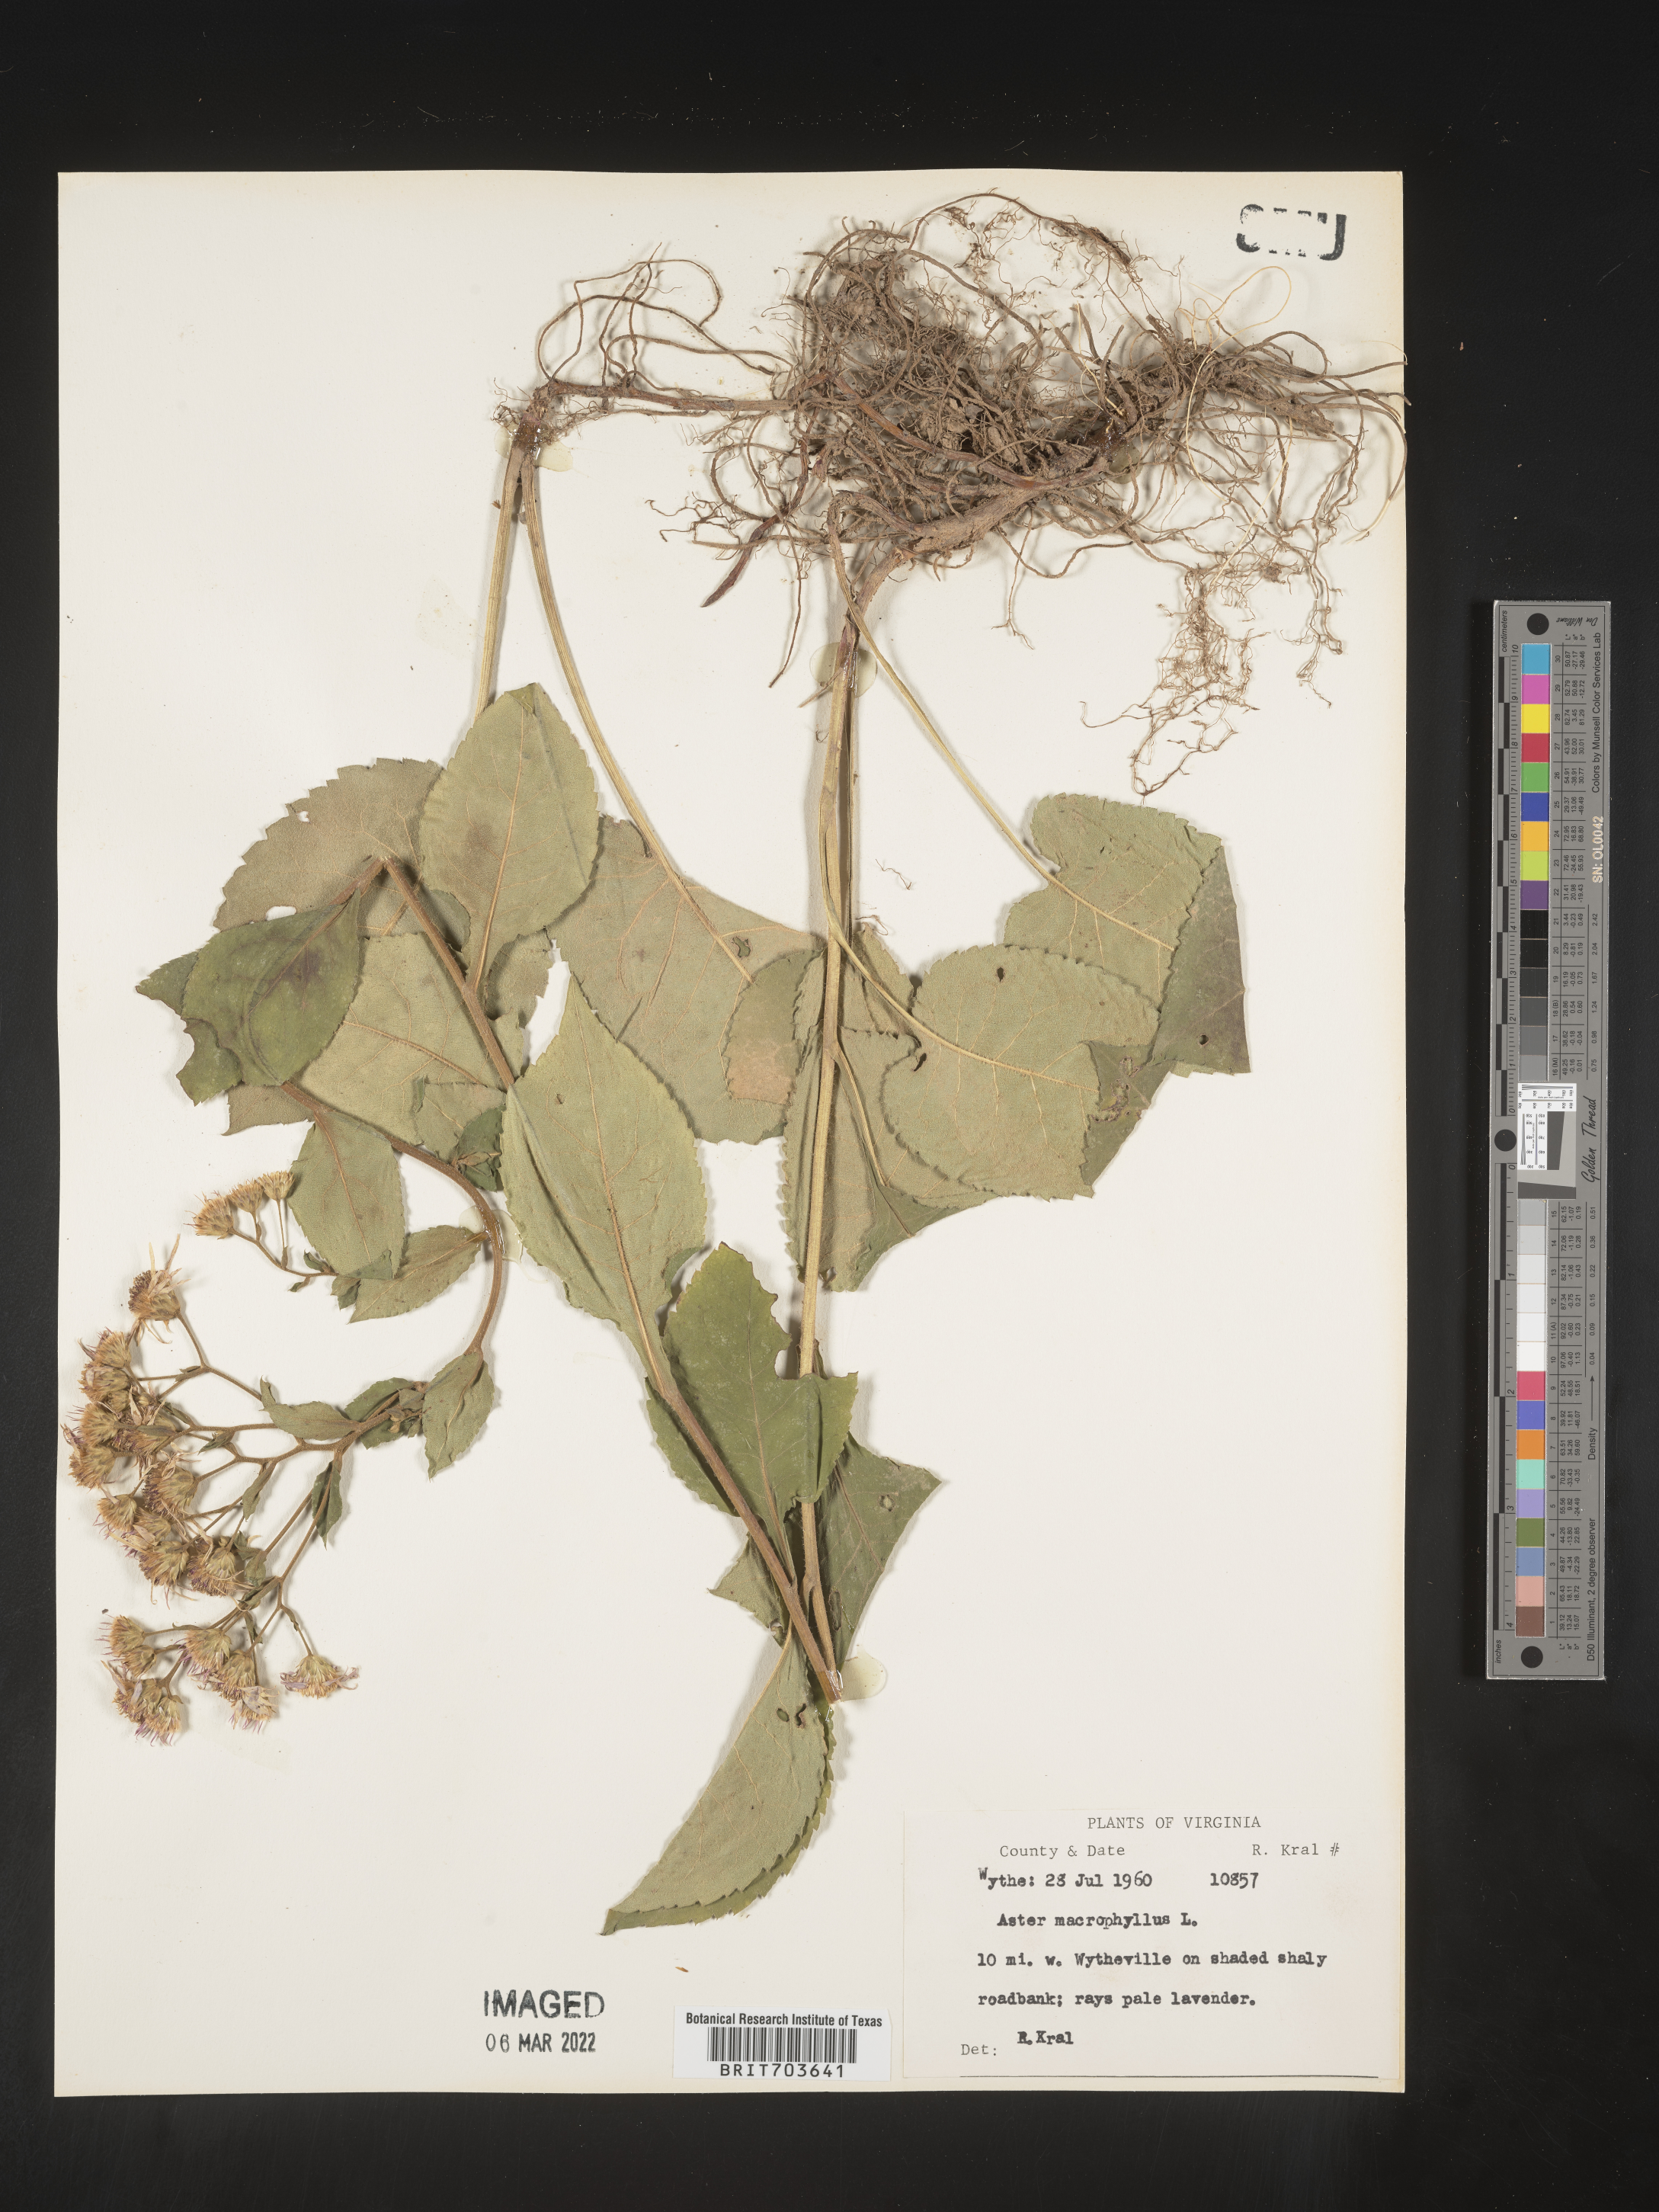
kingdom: Plantae
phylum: Tracheophyta
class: Magnoliopsida
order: Asterales
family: Asteraceae
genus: Eurybia
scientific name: Eurybia macrophylla
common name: Big-leaved aster
